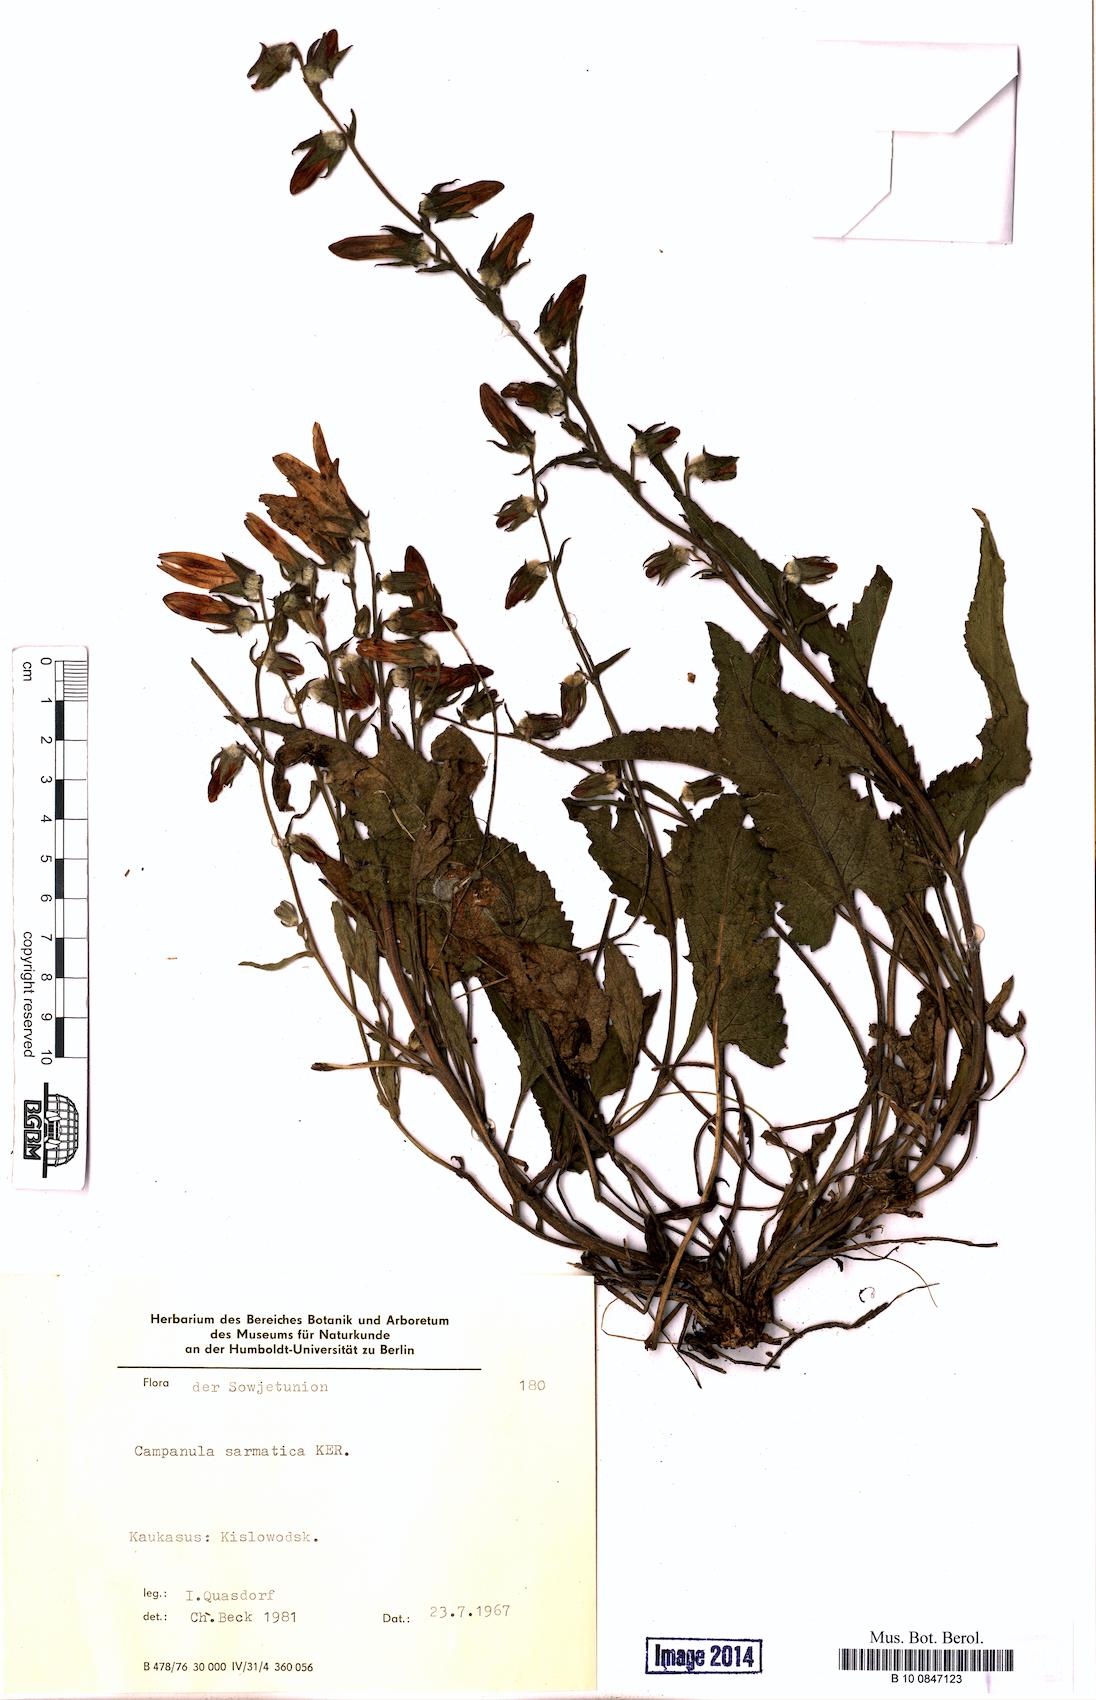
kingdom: Plantae
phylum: Tracheophyta
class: Magnoliopsida
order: Asterales
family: Campanulaceae
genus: Campanula
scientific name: Campanula sarmatica
